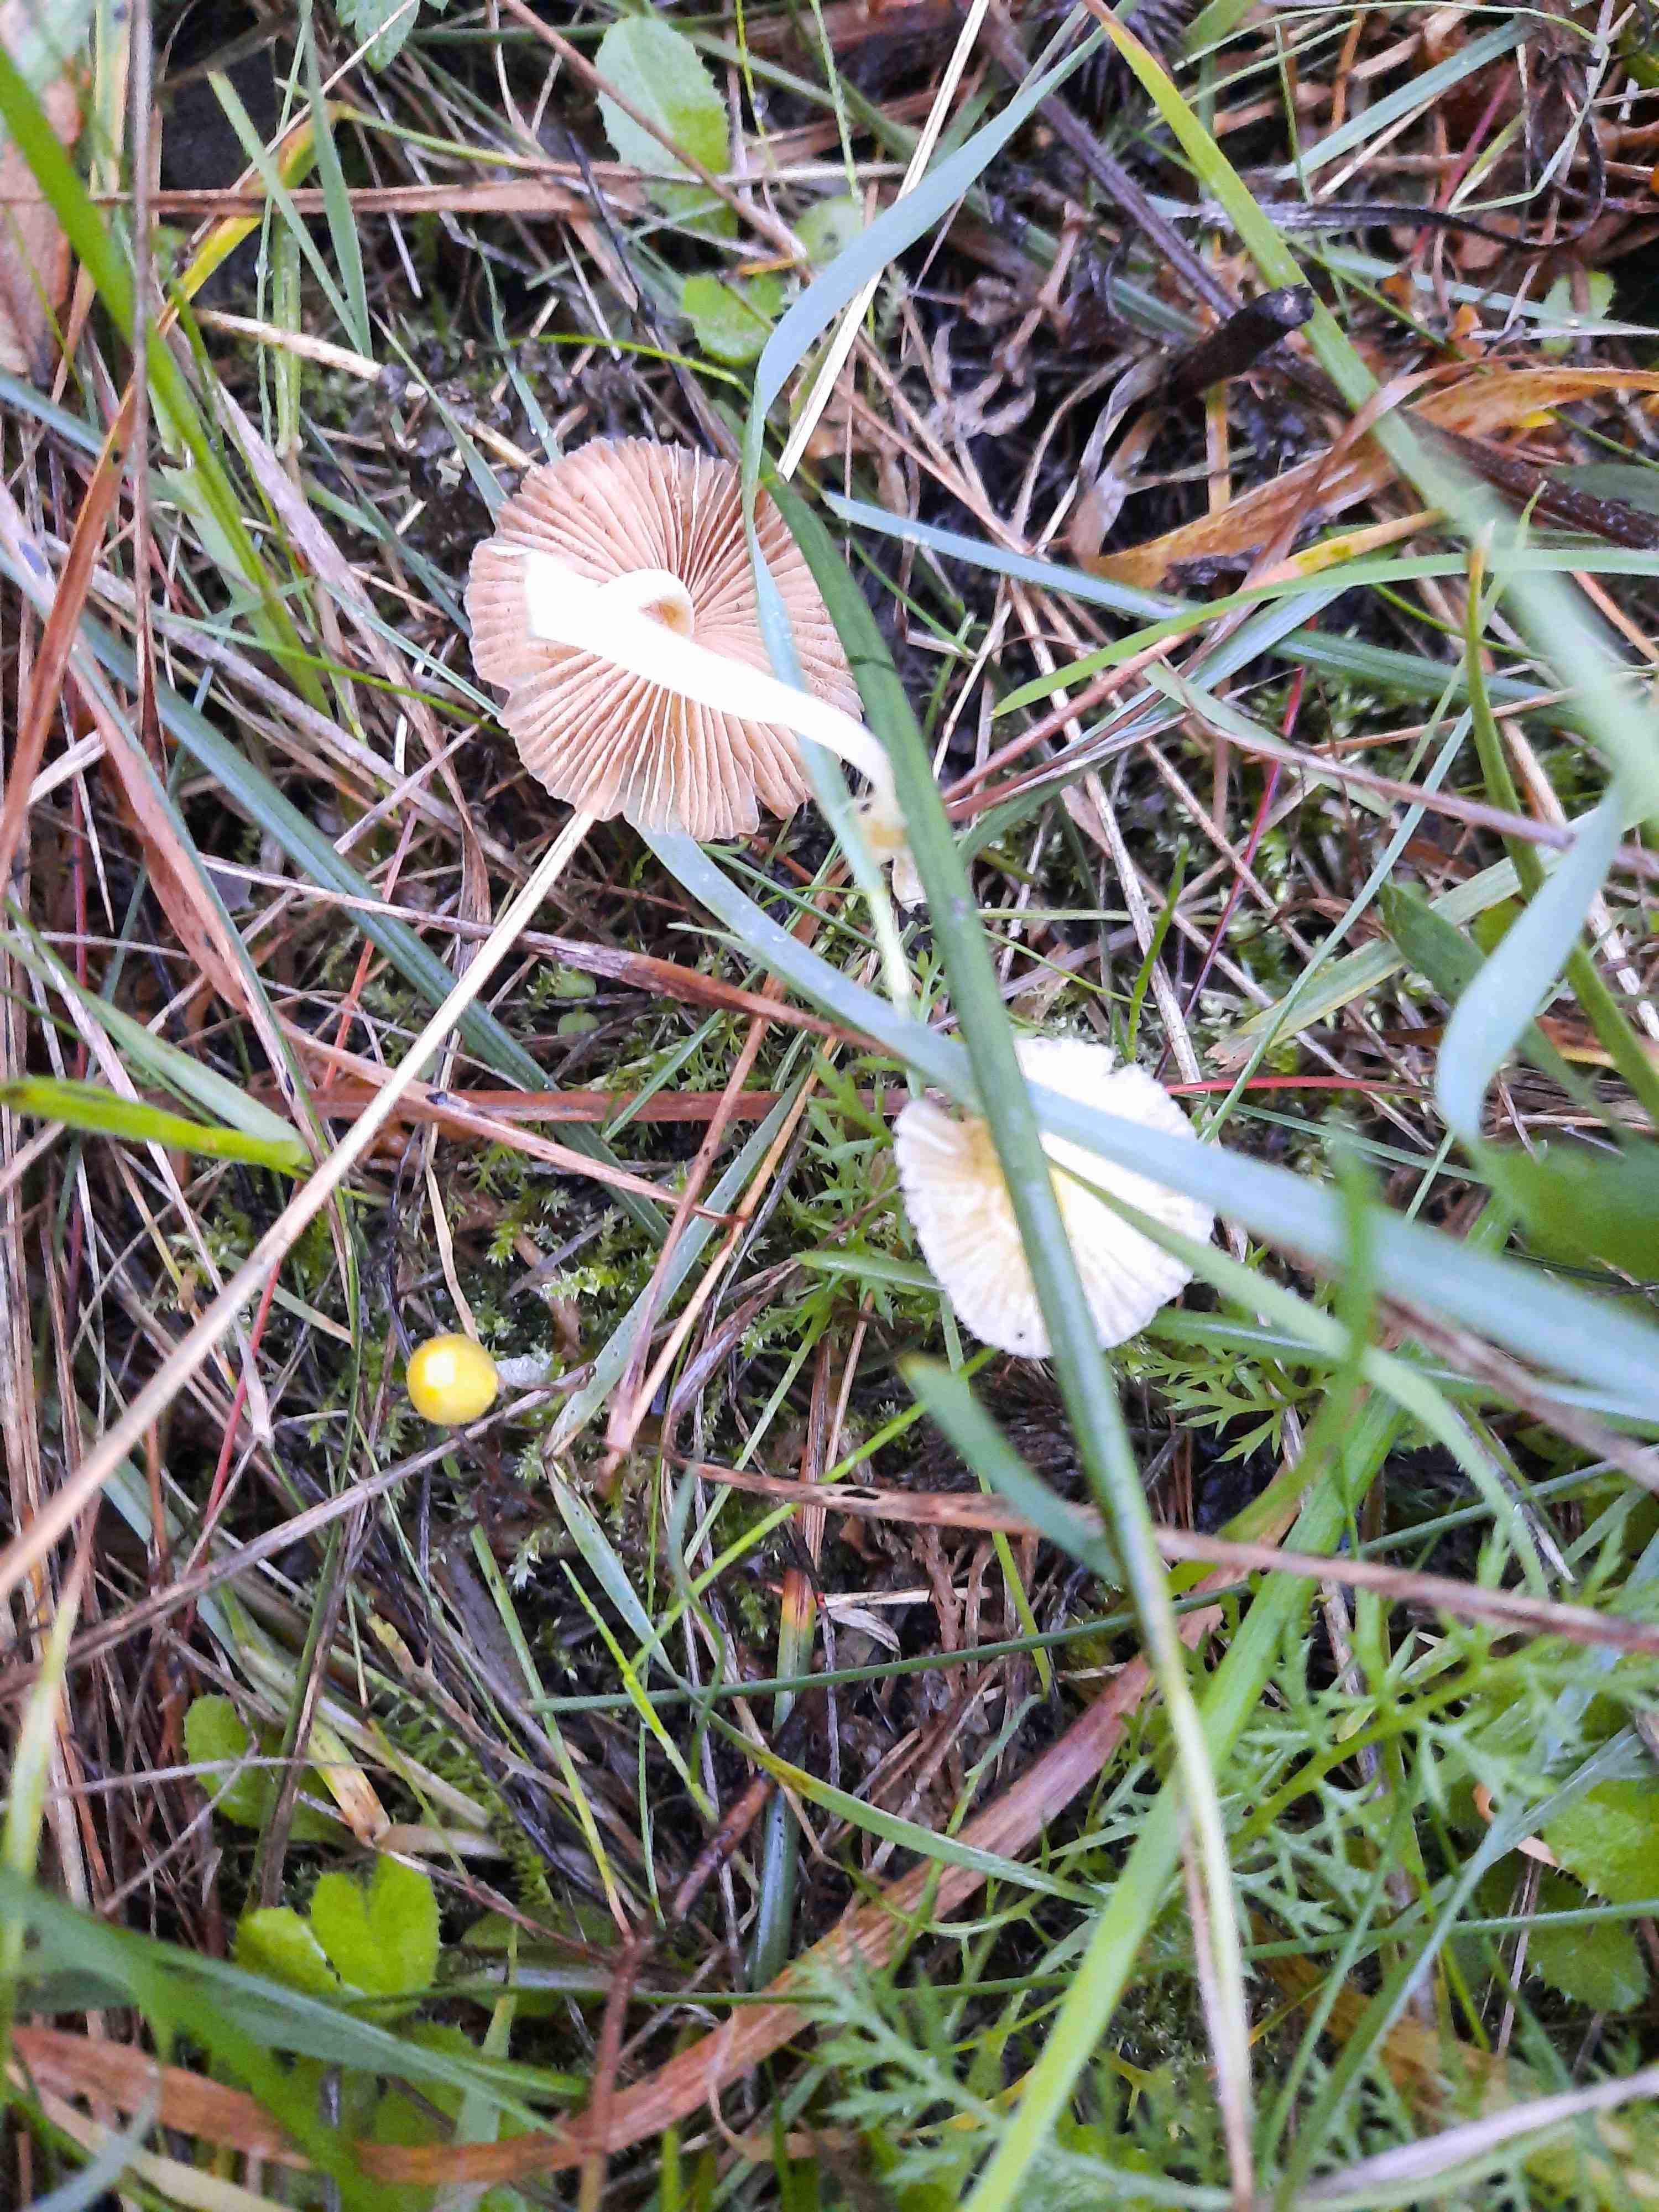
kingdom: Fungi
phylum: Basidiomycota
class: Agaricomycetes
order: Agaricales
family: Bolbitiaceae
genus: Bolbitius
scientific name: Bolbitius titubans
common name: almindelig gulhat
